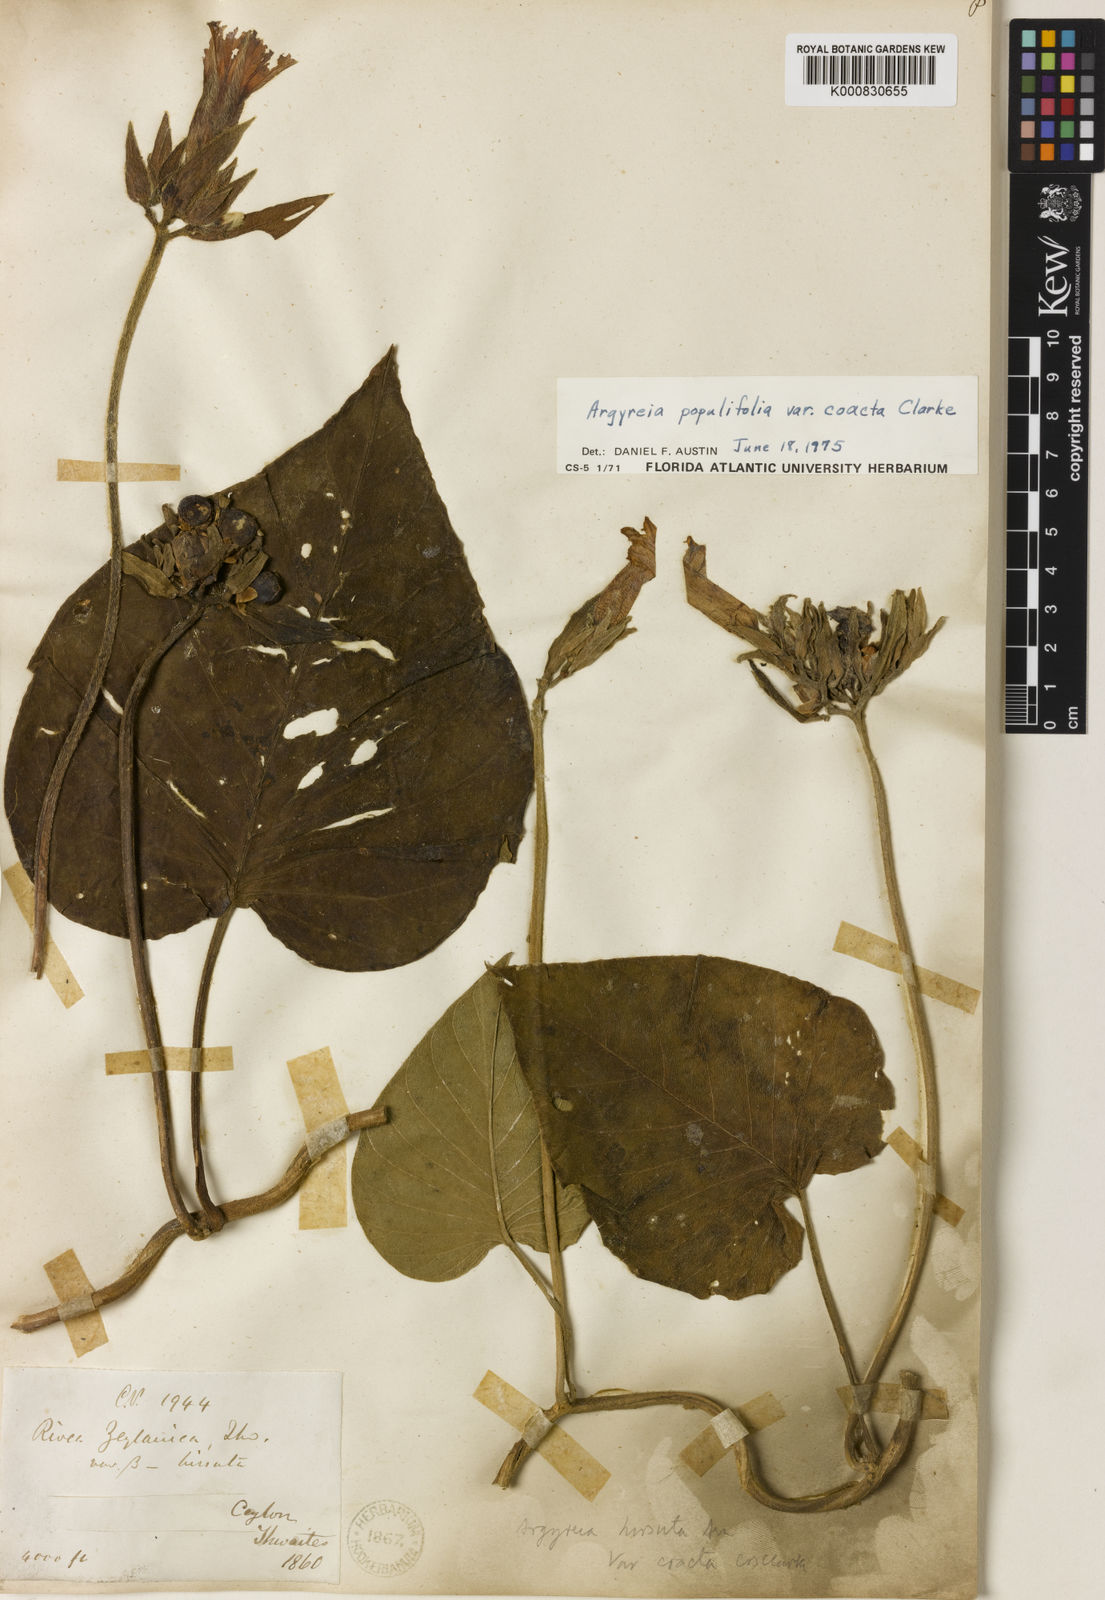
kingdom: Plantae
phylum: Tracheophyta
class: Magnoliopsida
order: Solanales
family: Convolvulaceae
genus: Argyreia
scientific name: Argyreia
